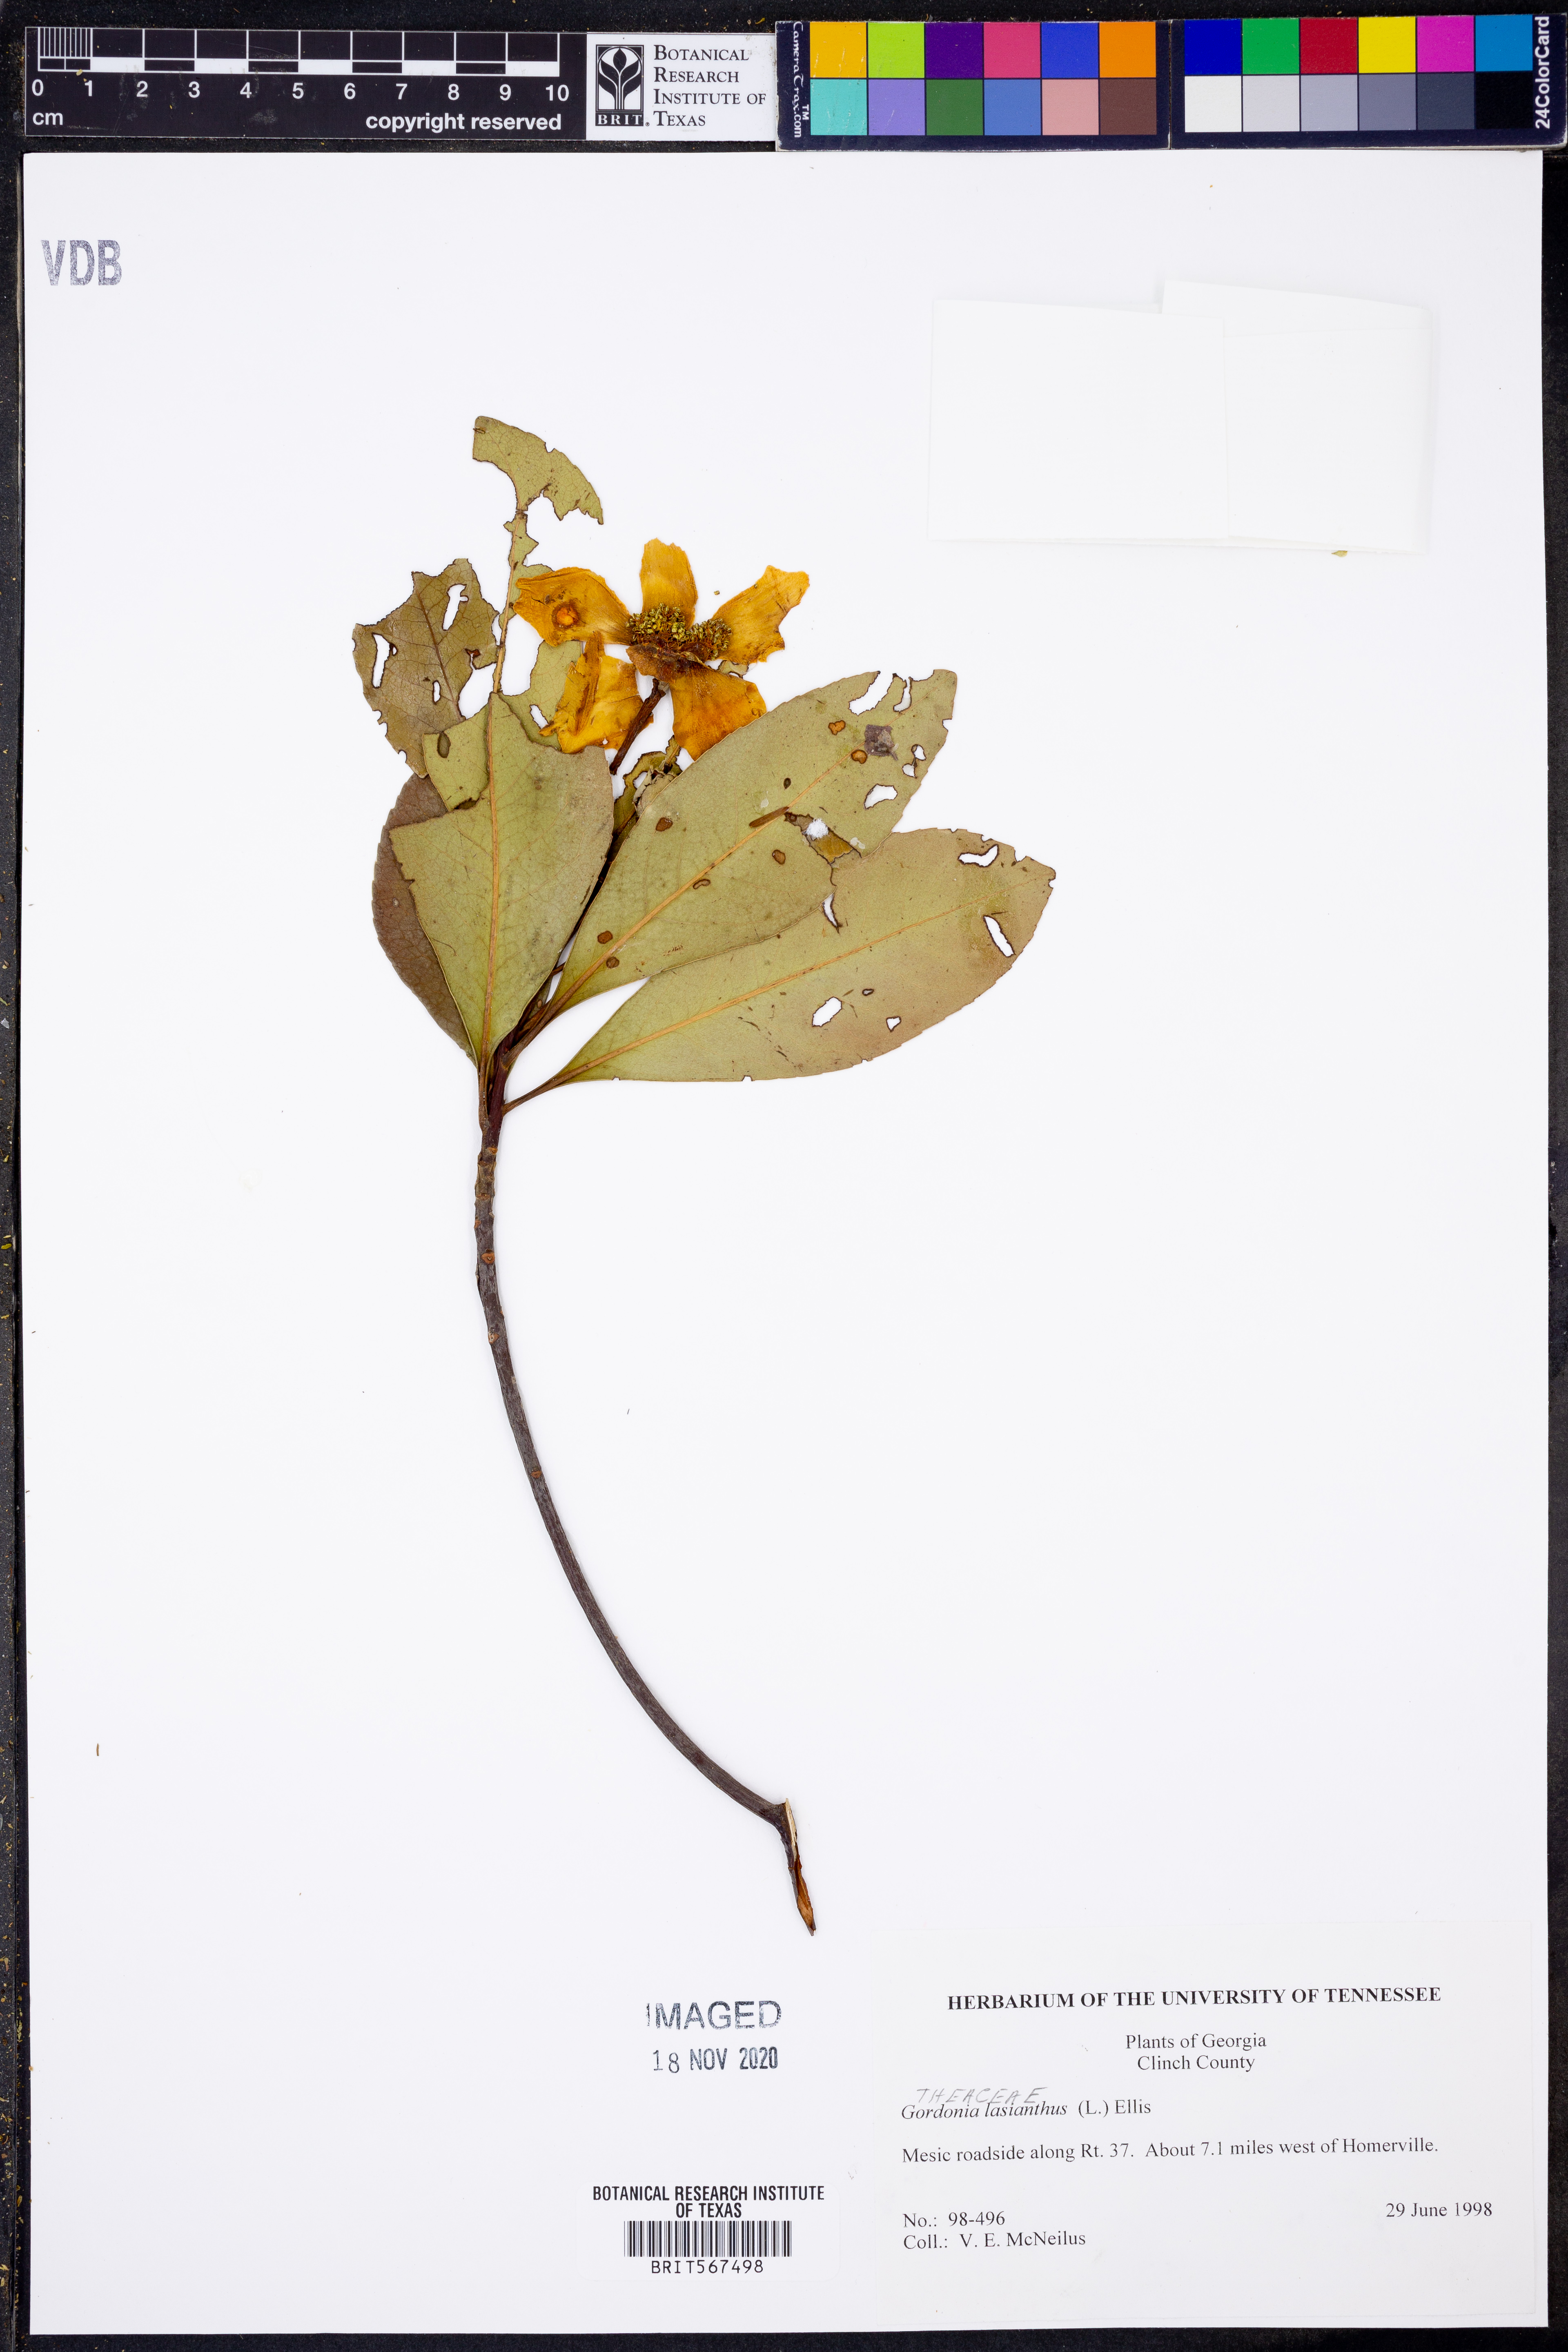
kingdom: Plantae
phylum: Tracheophyta
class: Magnoliopsida
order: Ericales
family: Theaceae
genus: Gordonia
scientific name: Gordonia lasianthus
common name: Loblolly bay
